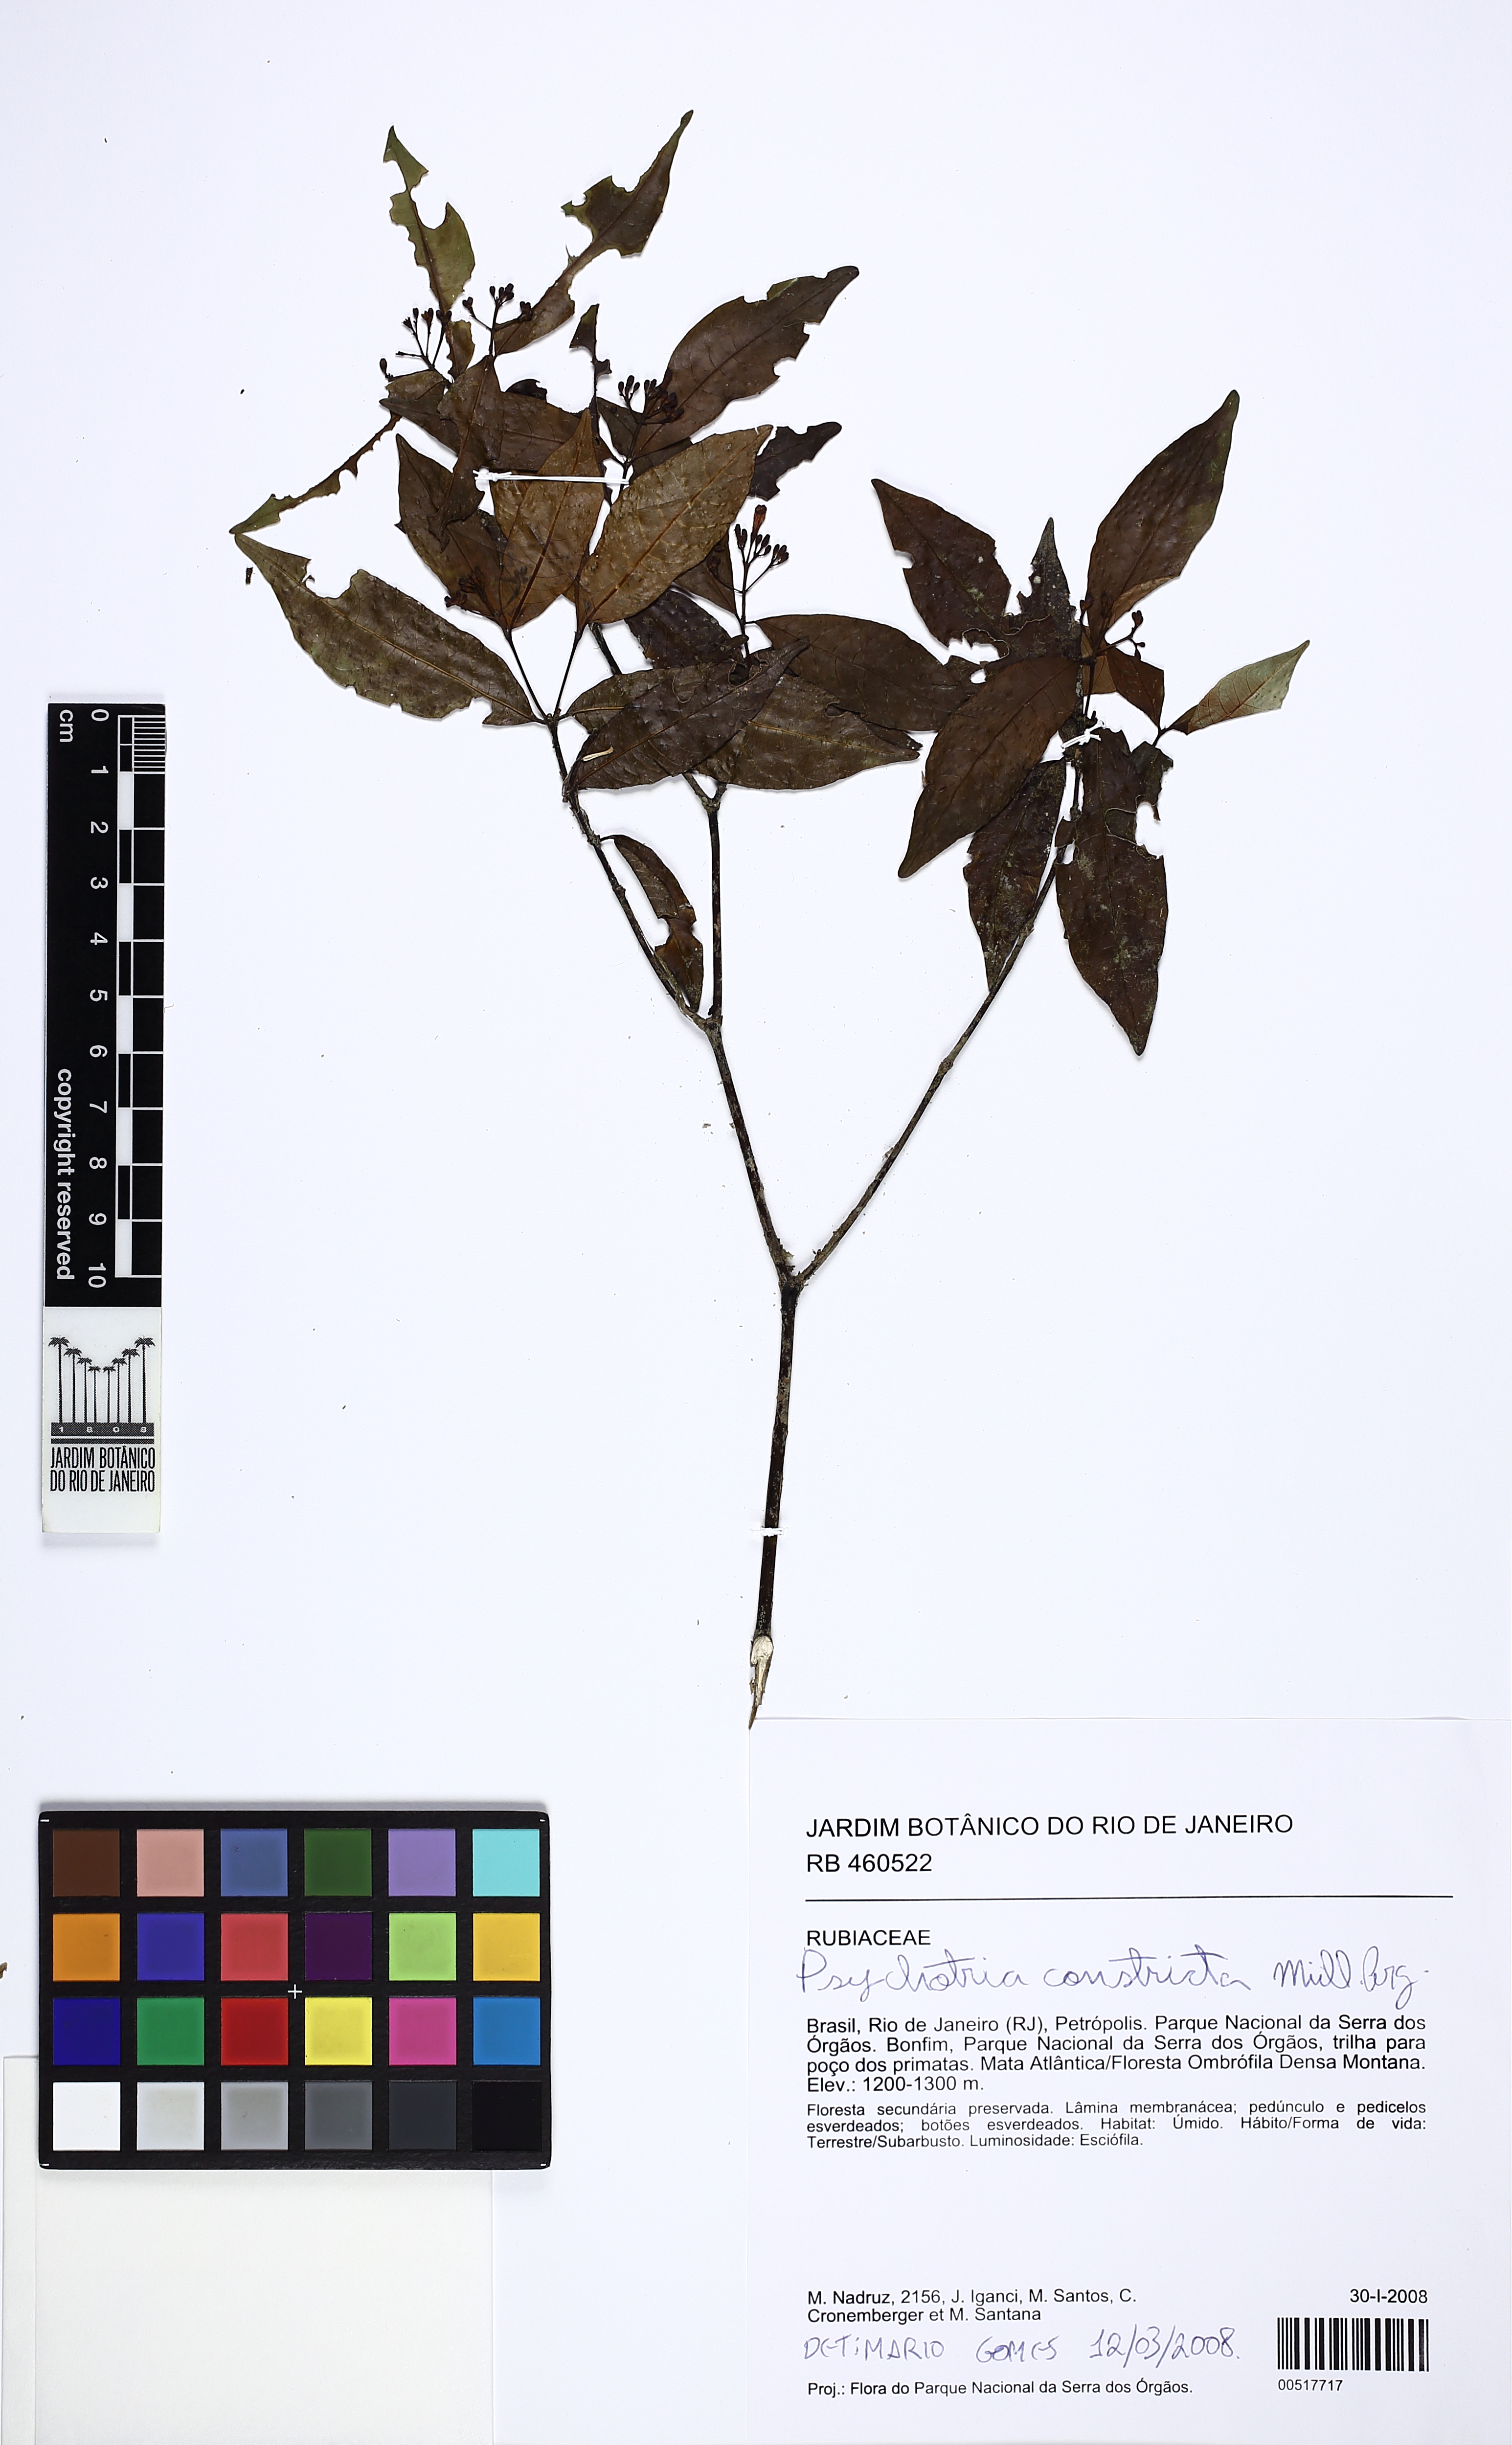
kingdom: Plantae
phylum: Tracheophyta
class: Magnoliopsida
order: Gentianales
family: Rubiaceae
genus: Psychotria
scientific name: Psychotria leiocarpa
